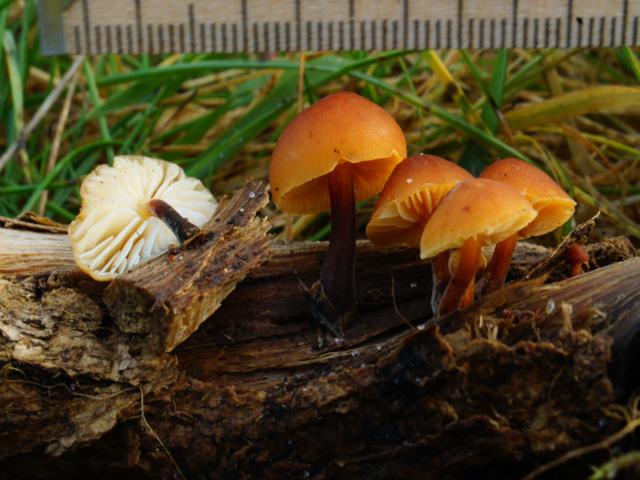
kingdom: Fungi
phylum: Basidiomycota
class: Agaricomycetes
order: Agaricales
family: Physalacriaceae
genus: Flammulina
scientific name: Flammulina velutipes
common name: gul fløjlsfod
